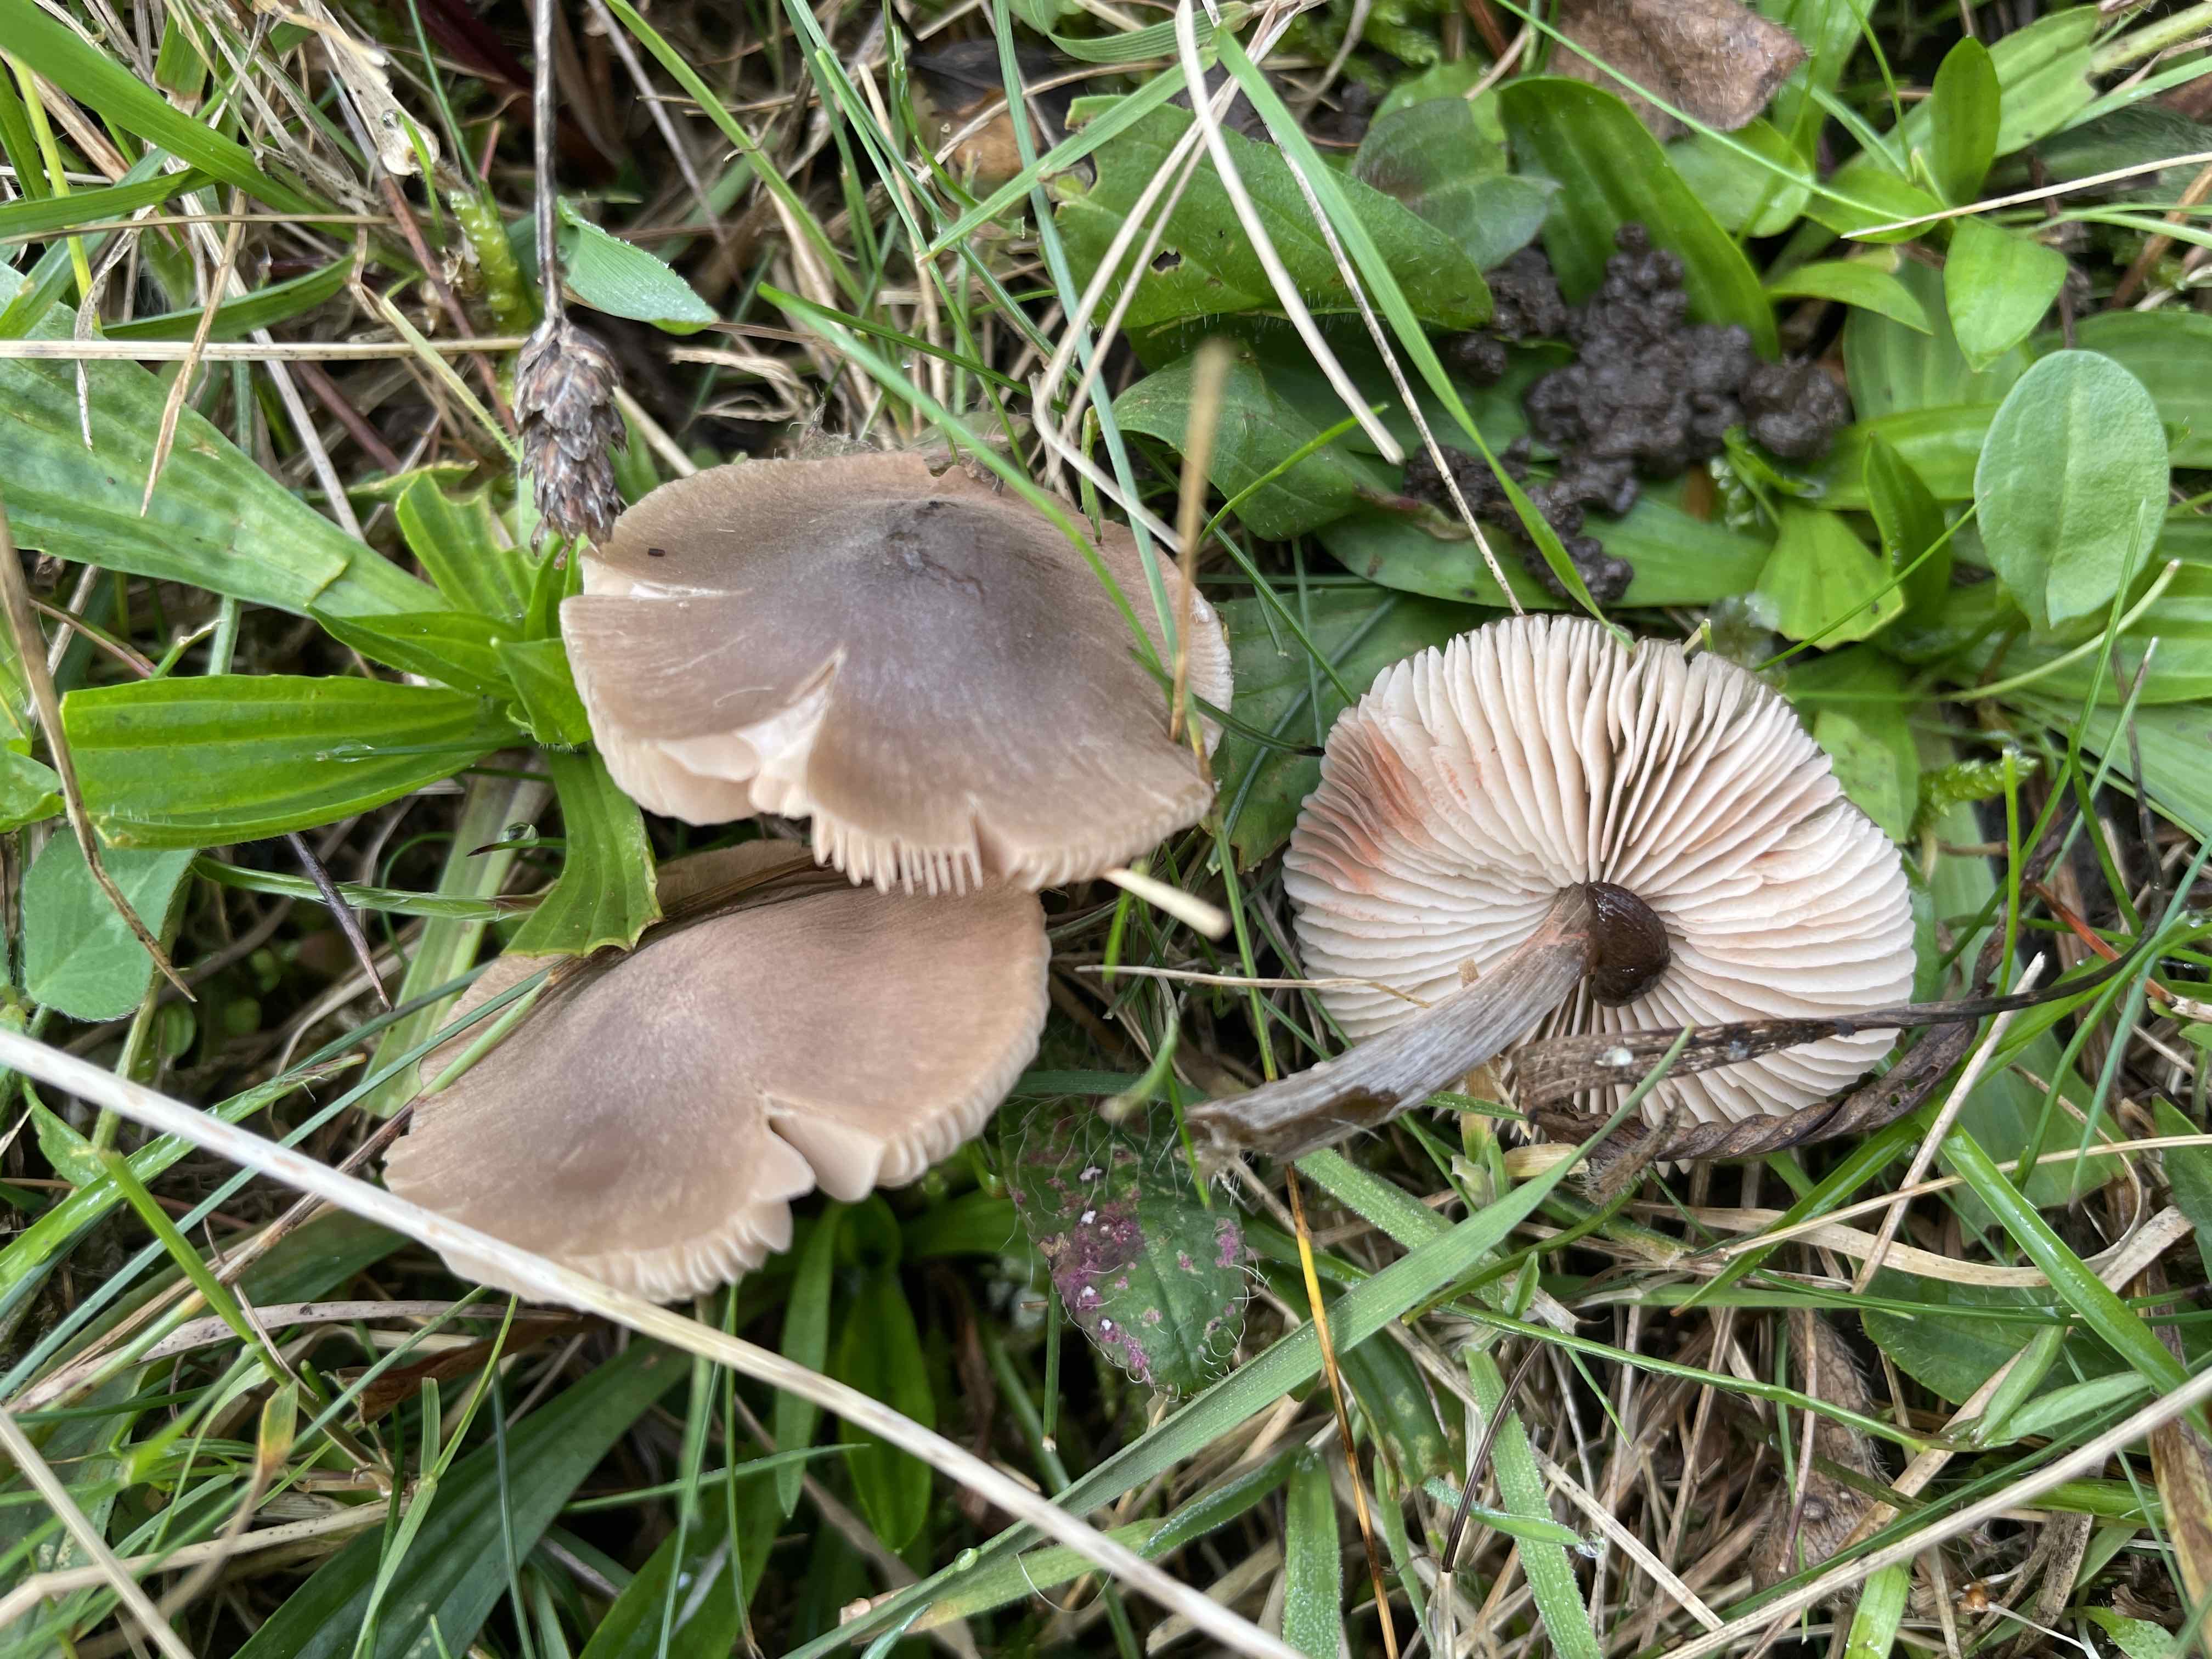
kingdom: Fungi
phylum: Basidiomycota
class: Agaricomycetes
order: Agaricales
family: Entolomataceae
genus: Entoloma
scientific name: Entoloma conferendum
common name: stjernesporet rødblad
